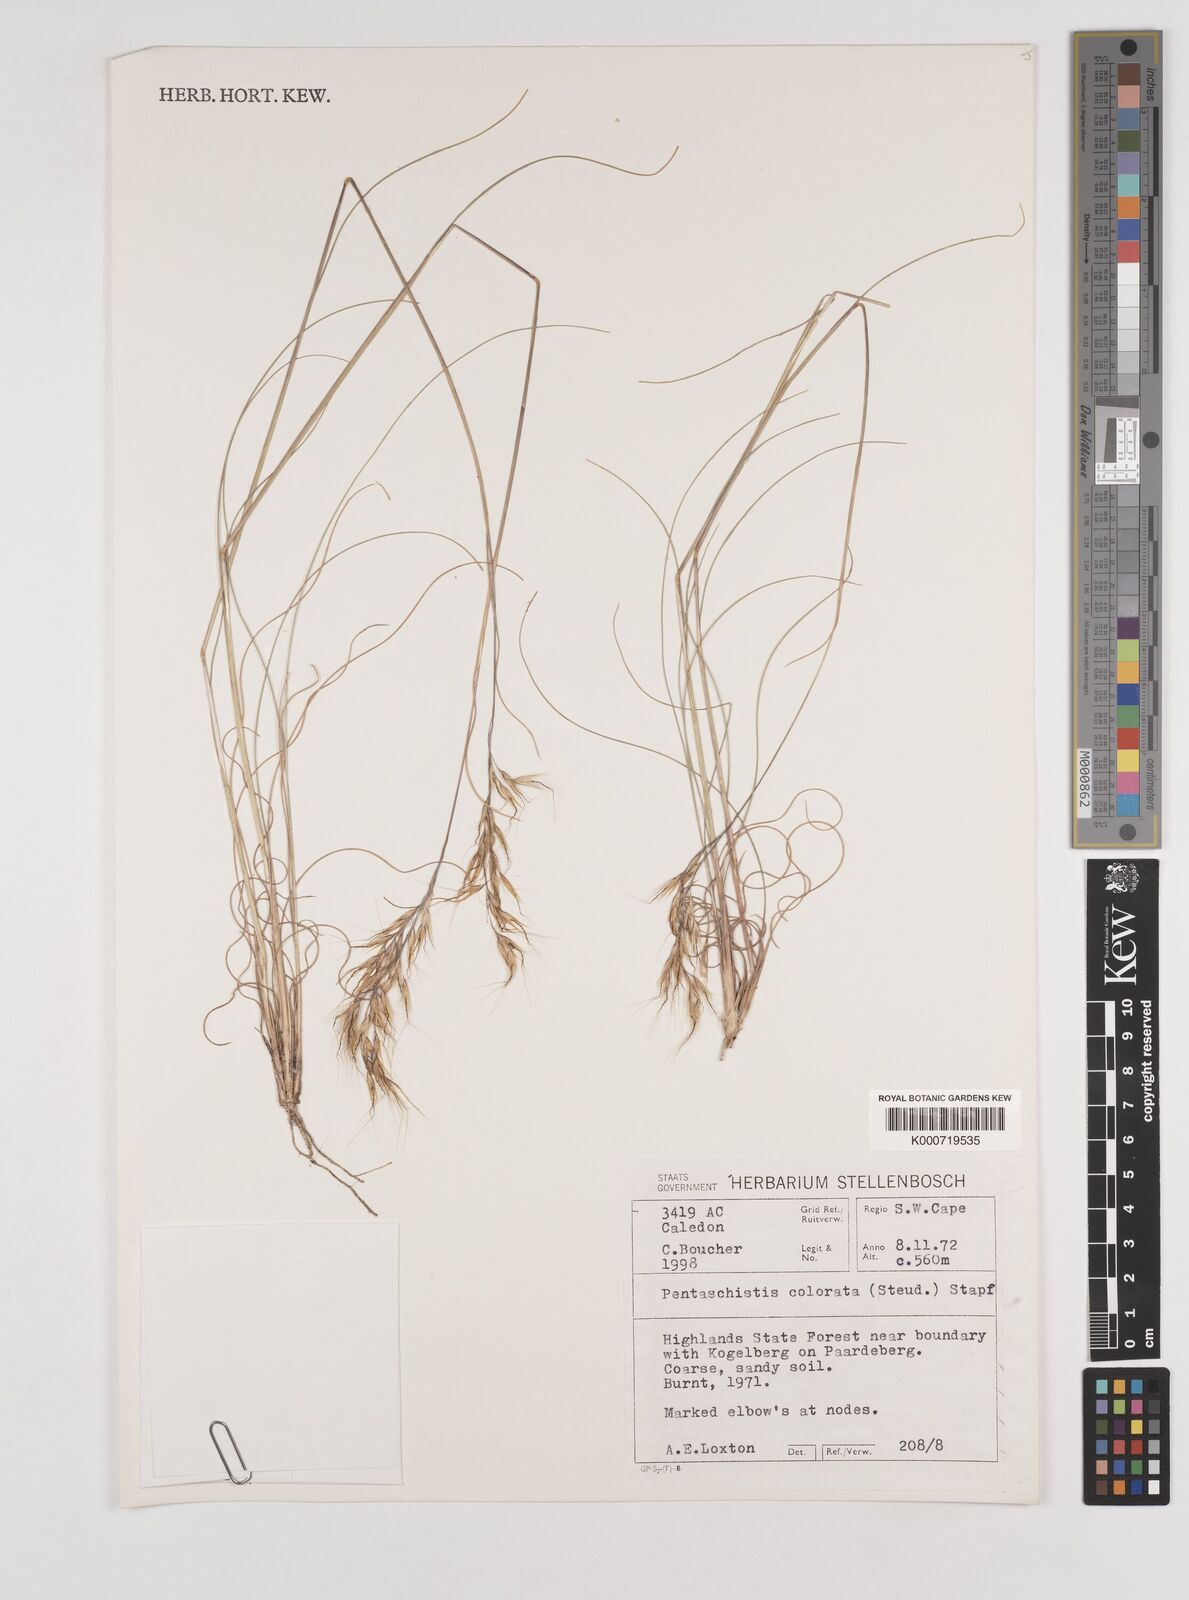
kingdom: Plantae
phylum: Tracheophyta
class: Liliopsida
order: Poales
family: Poaceae
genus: Pentameris
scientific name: Pentameris colorata
